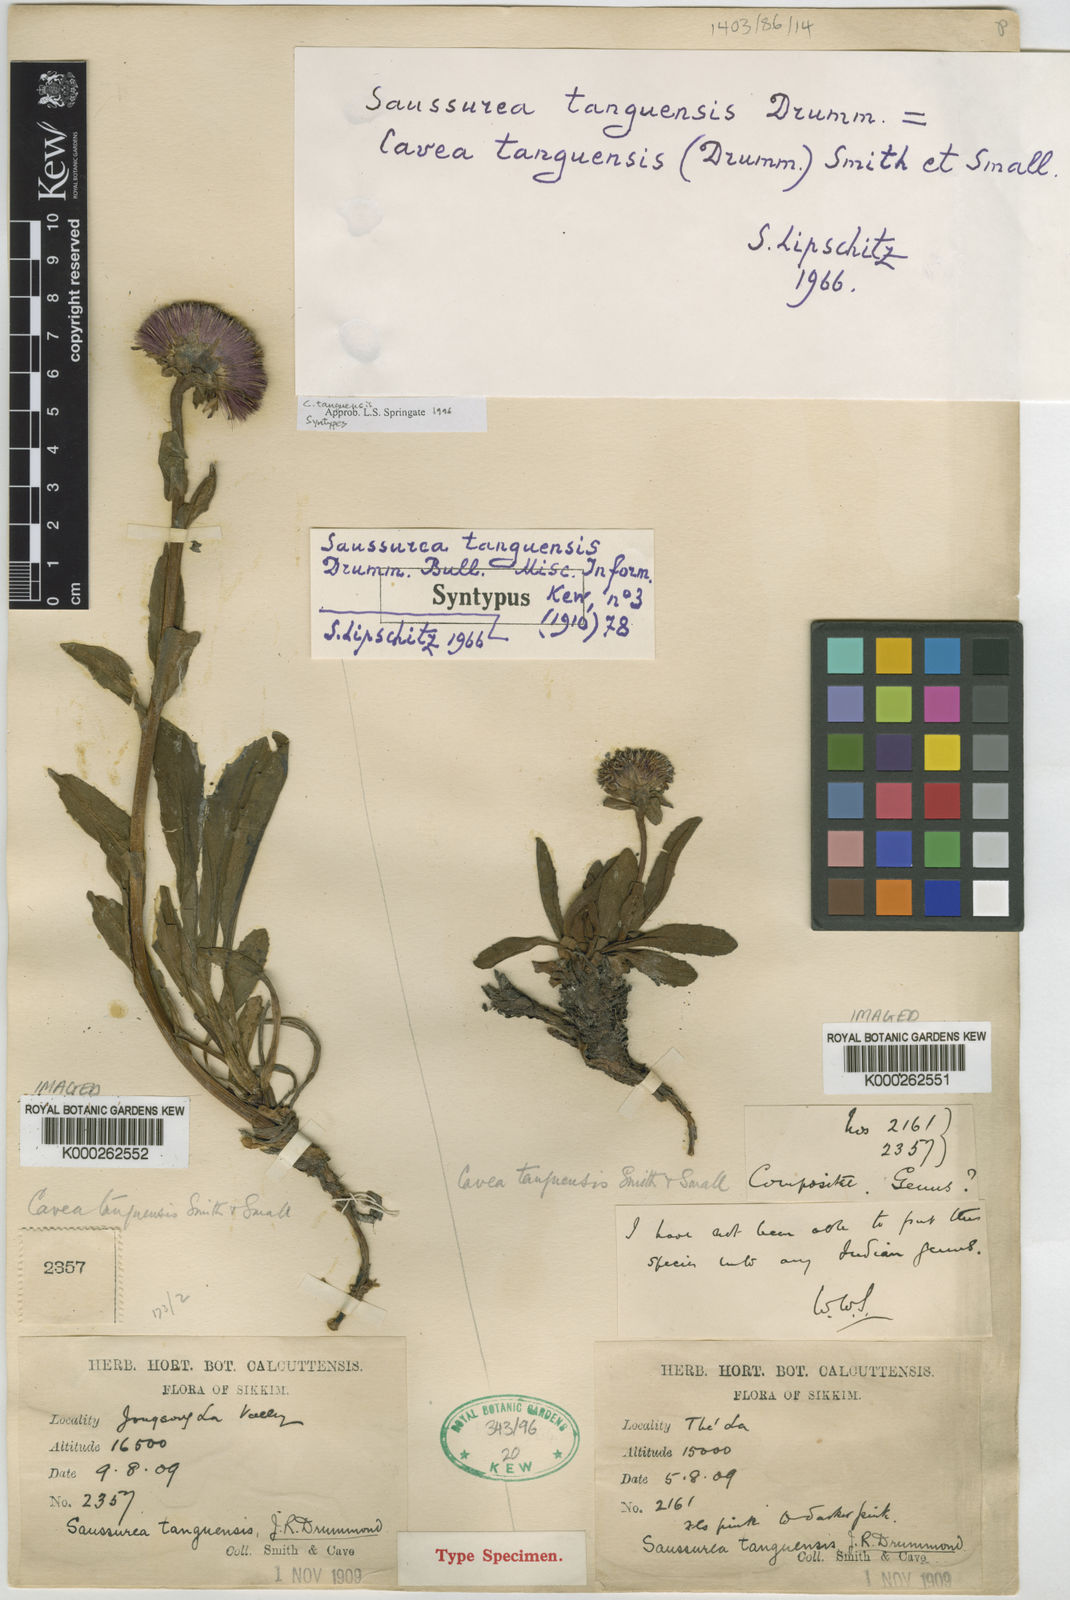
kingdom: Plantae
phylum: Tracheophyta
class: Magnoliopsida
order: Asterales
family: Asteraceae
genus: Cavea
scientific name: Cavea tanguensis
